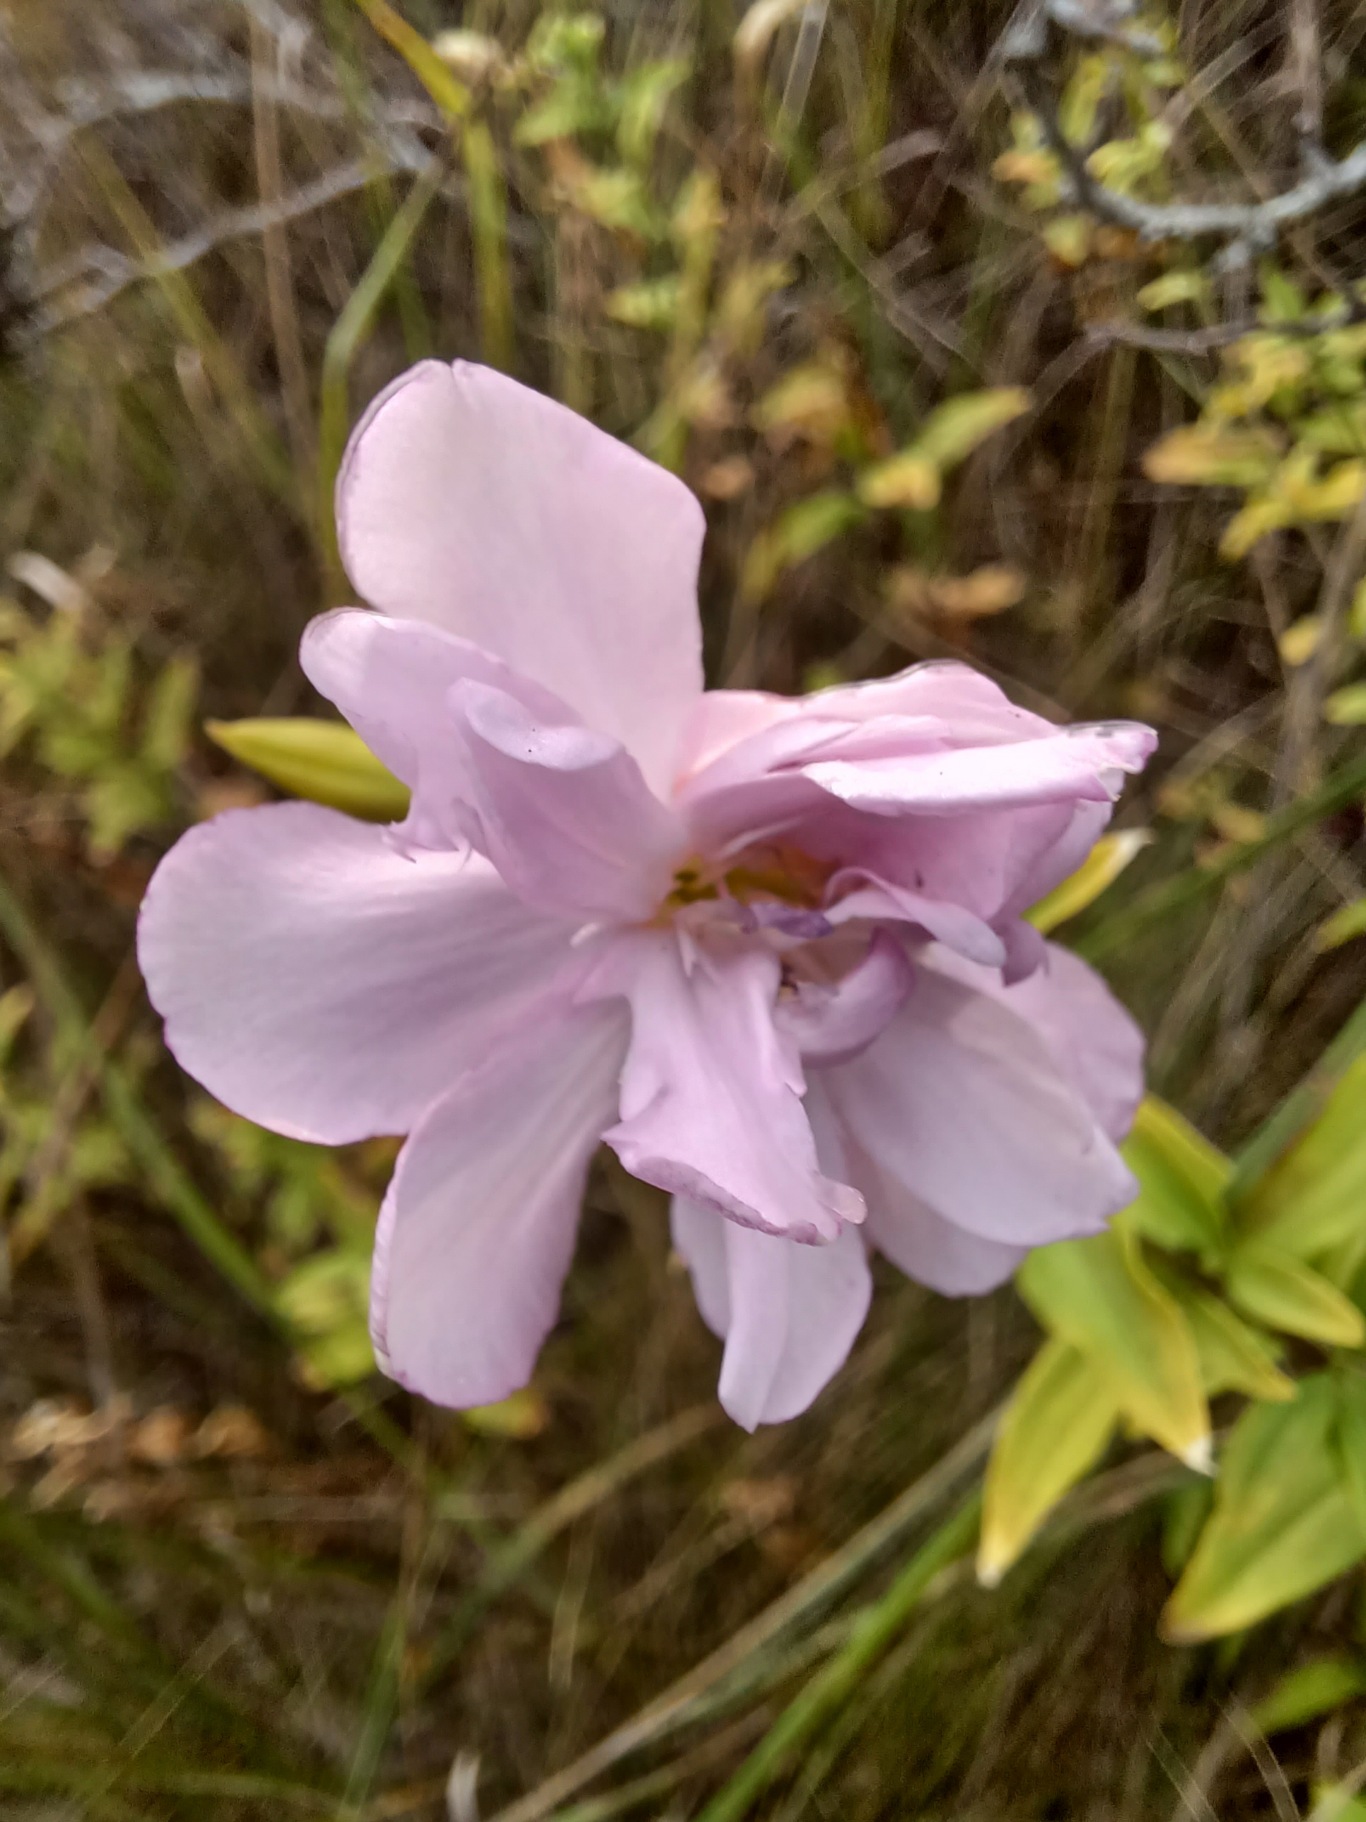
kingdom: Plantae
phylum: Tracheophyta
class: Magnoliopsida
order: Caryophyllales
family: Caryophyllaceae
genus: Saponaria
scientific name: Saponaria officinalis
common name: Sæbeurt
